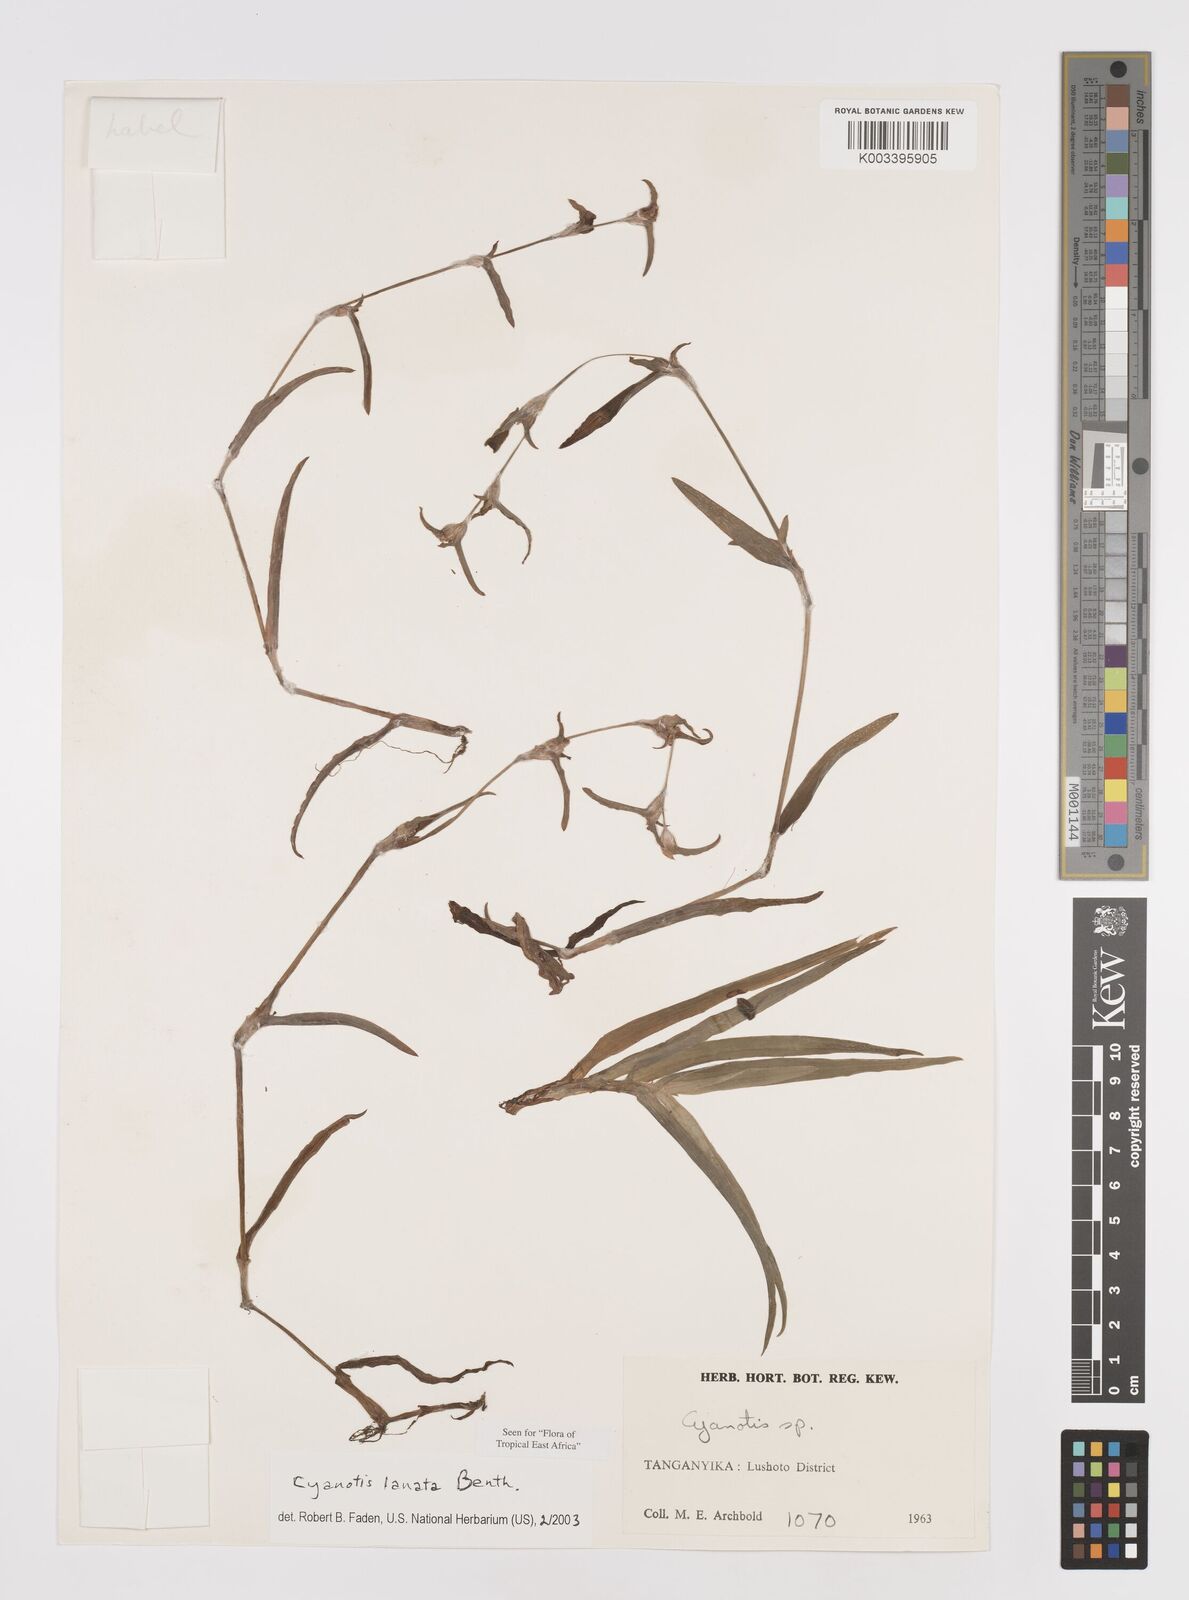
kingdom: Plantae
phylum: Tracheophyta
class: Liliopsida
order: Commelinales
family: Commelinaceae
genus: Cyanotis
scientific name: Cyanotis lanata
